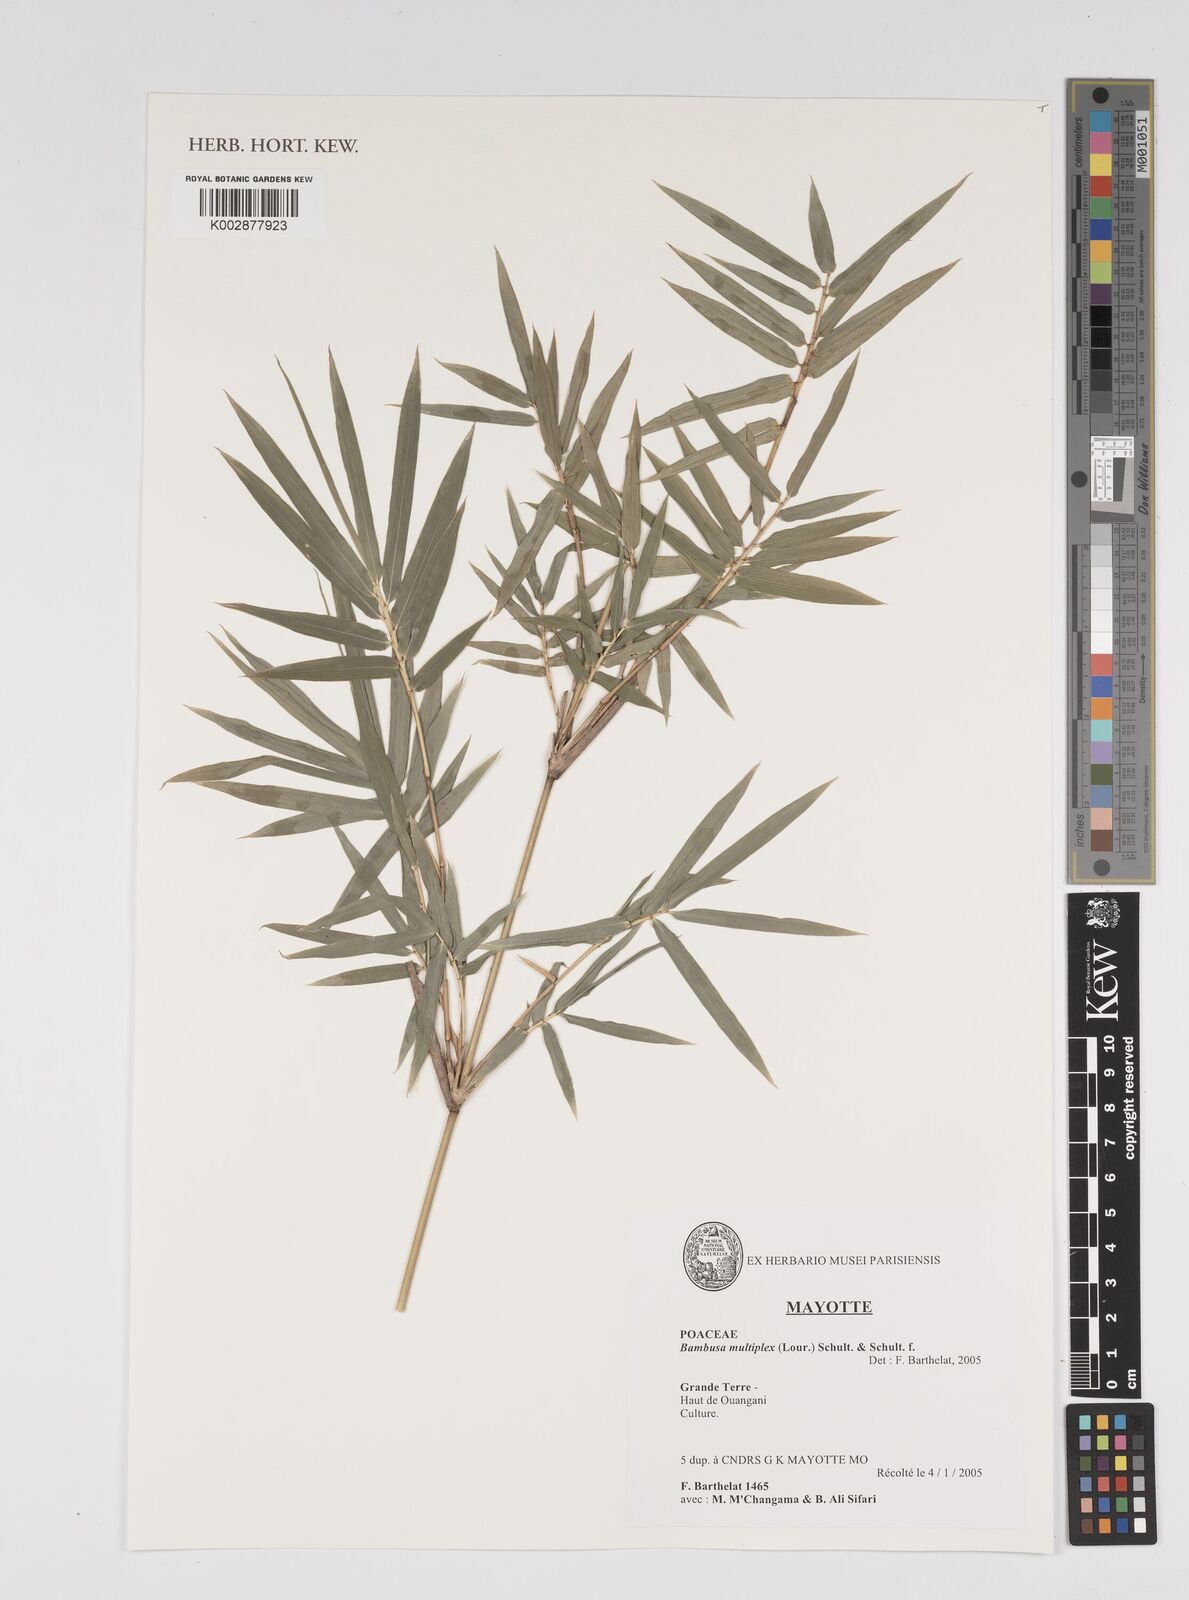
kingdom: Plantae
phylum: Tracheophyta
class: Liliopsida
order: Poales
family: Poaceae
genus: Bambusa
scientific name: Bambusa multiplex
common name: Hedge bamboo
